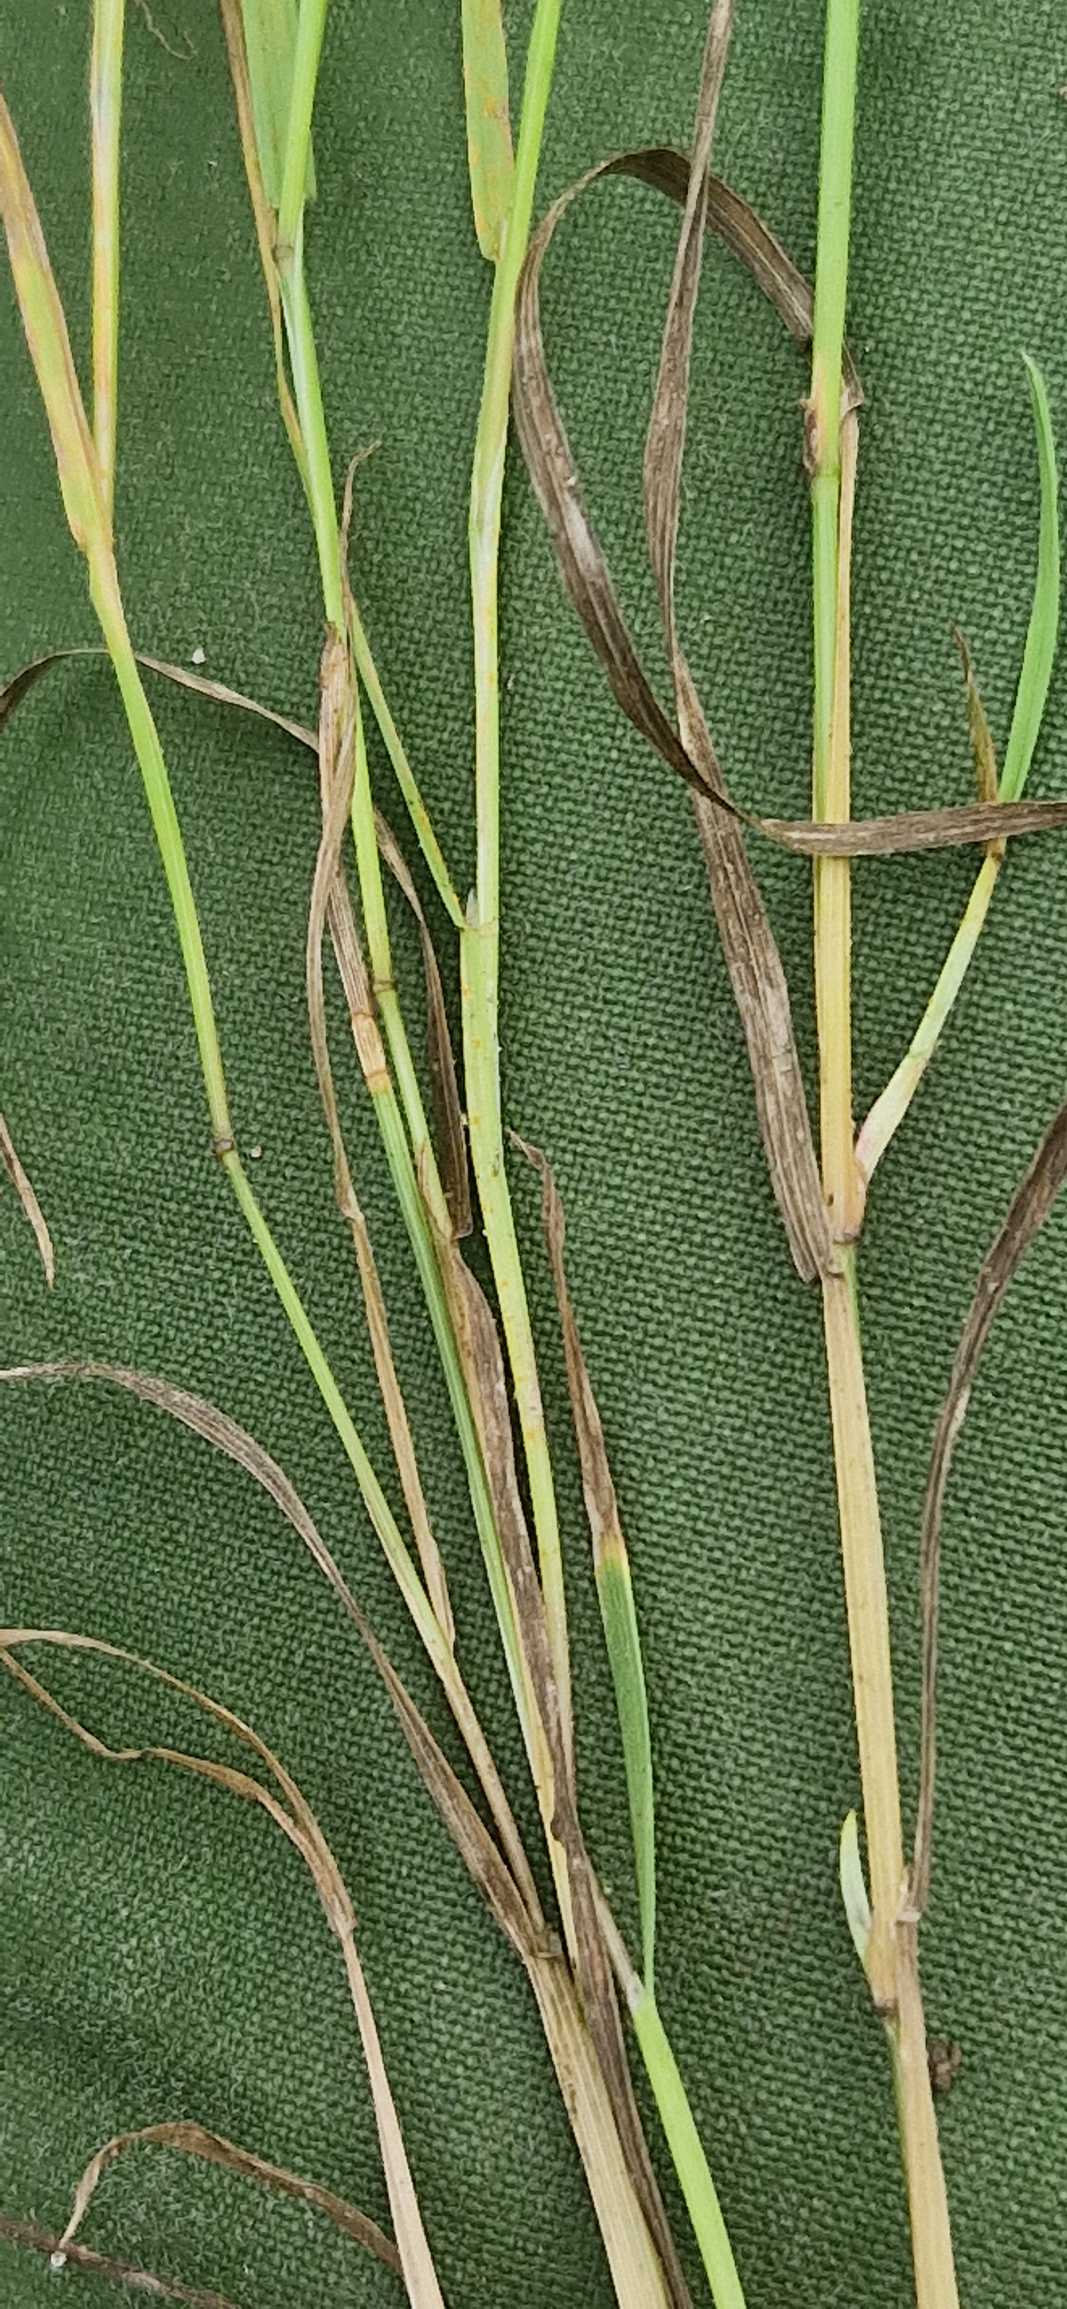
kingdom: Plantae
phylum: Tracheophyta
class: Liliopsida
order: Poales
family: Poaceae
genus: Poa
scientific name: Poa palustris
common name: Stortoppet rapgræs
